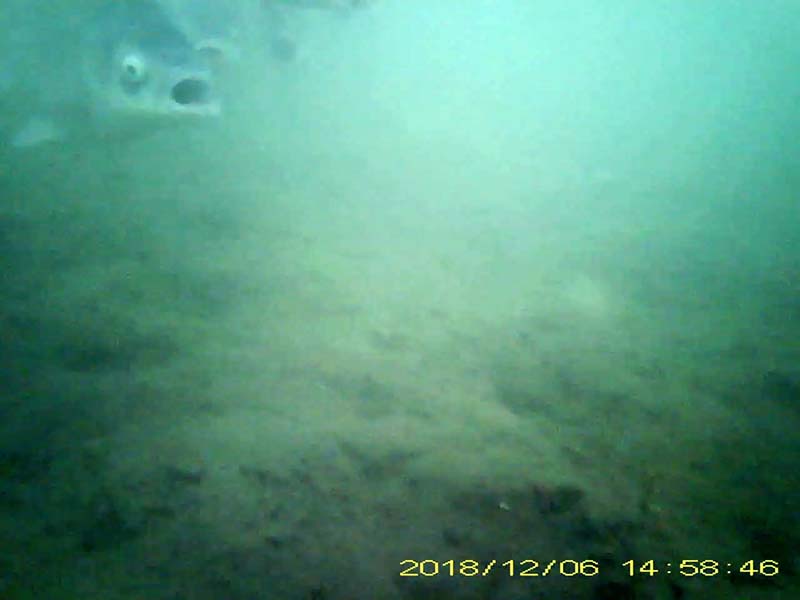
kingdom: Animalia
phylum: Chordata
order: Cypriniformes
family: Cyprinidae
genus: Carassius
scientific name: Carassius cuvieri
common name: ゲンゴロウブナ
